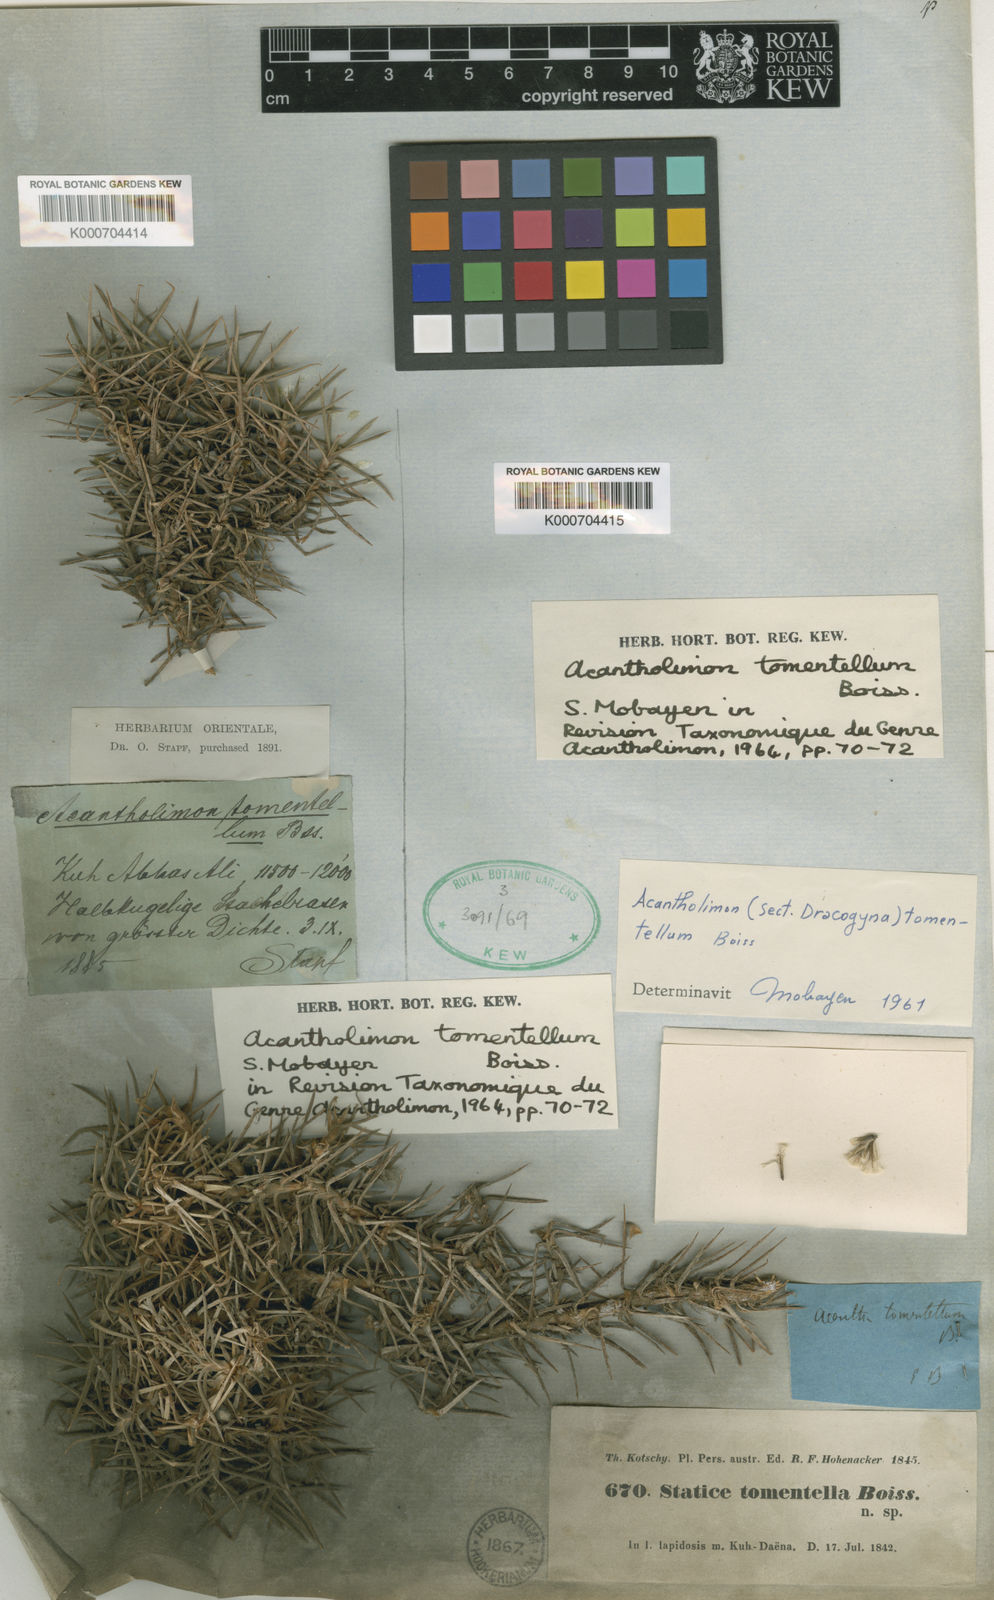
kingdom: Plantae
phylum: Tracheophyta
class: Magnoliopsida
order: Caryophyllales
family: Plumbaginaceae
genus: Acantholimon
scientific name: Acantholimon tomentellum
